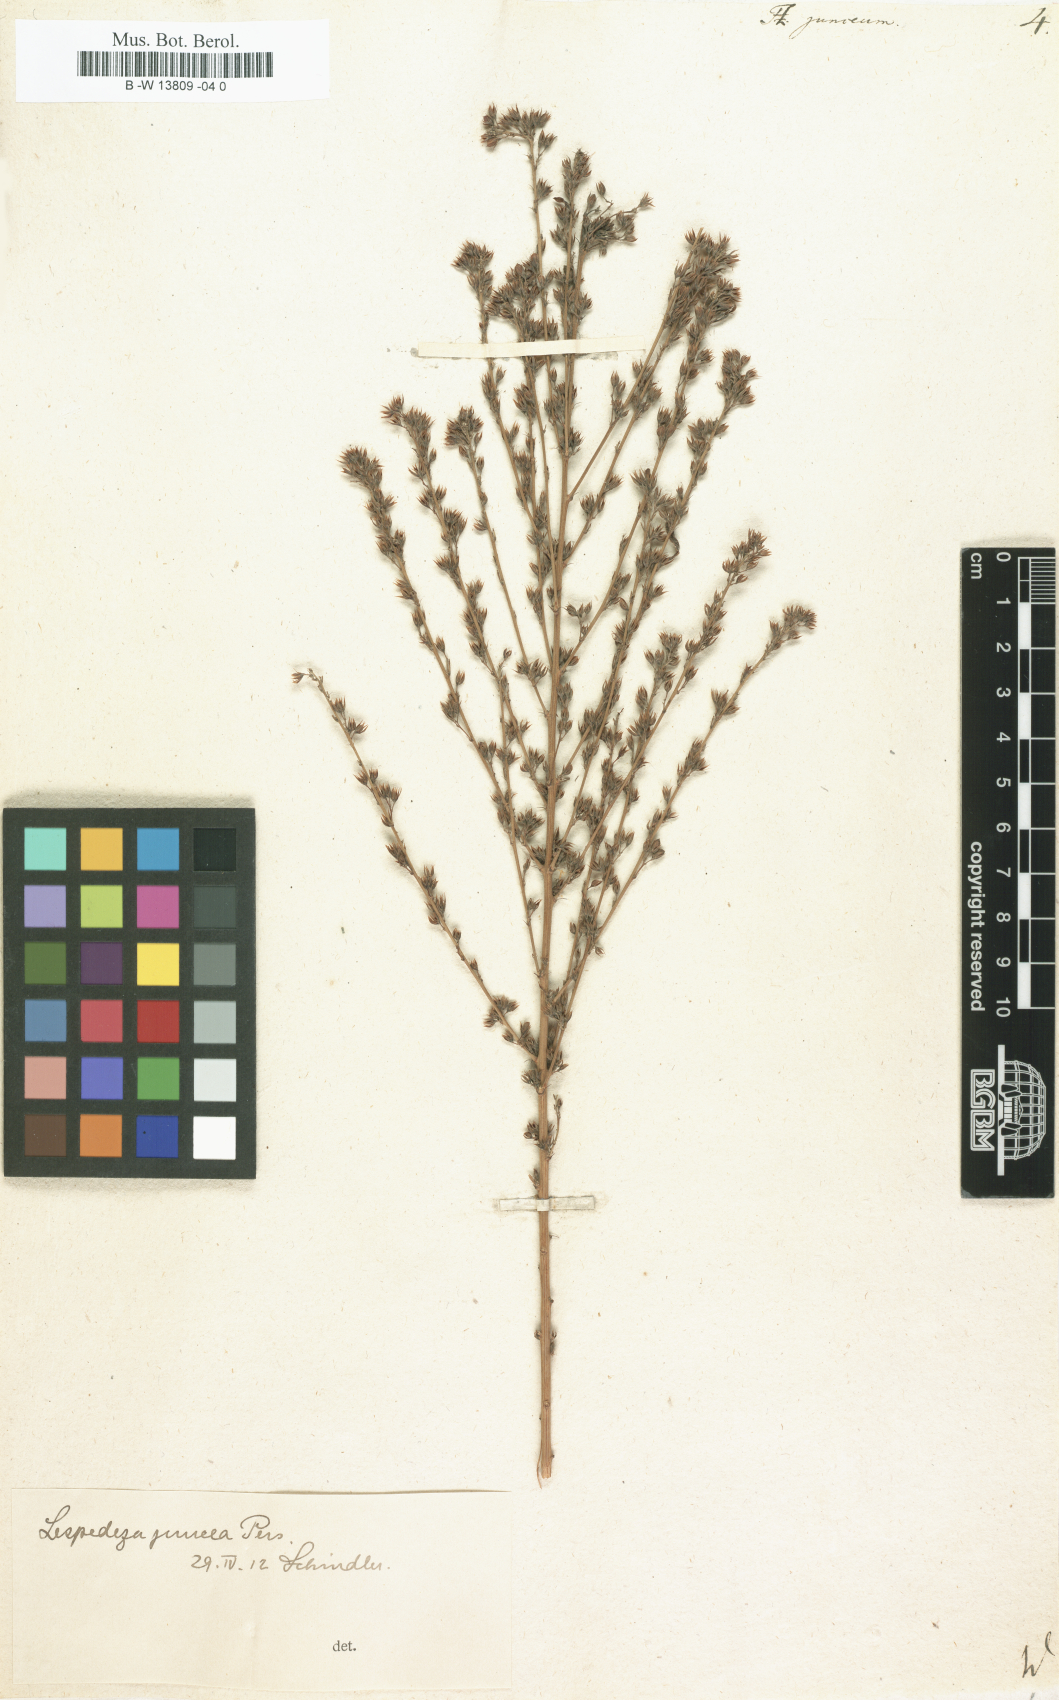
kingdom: Plantae
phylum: Tracheophyta
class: Magnoliopsida
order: Fabales
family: Fabaceae
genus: Lespedeza
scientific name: Lespedeza juncea
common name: Siberian lespedeza
